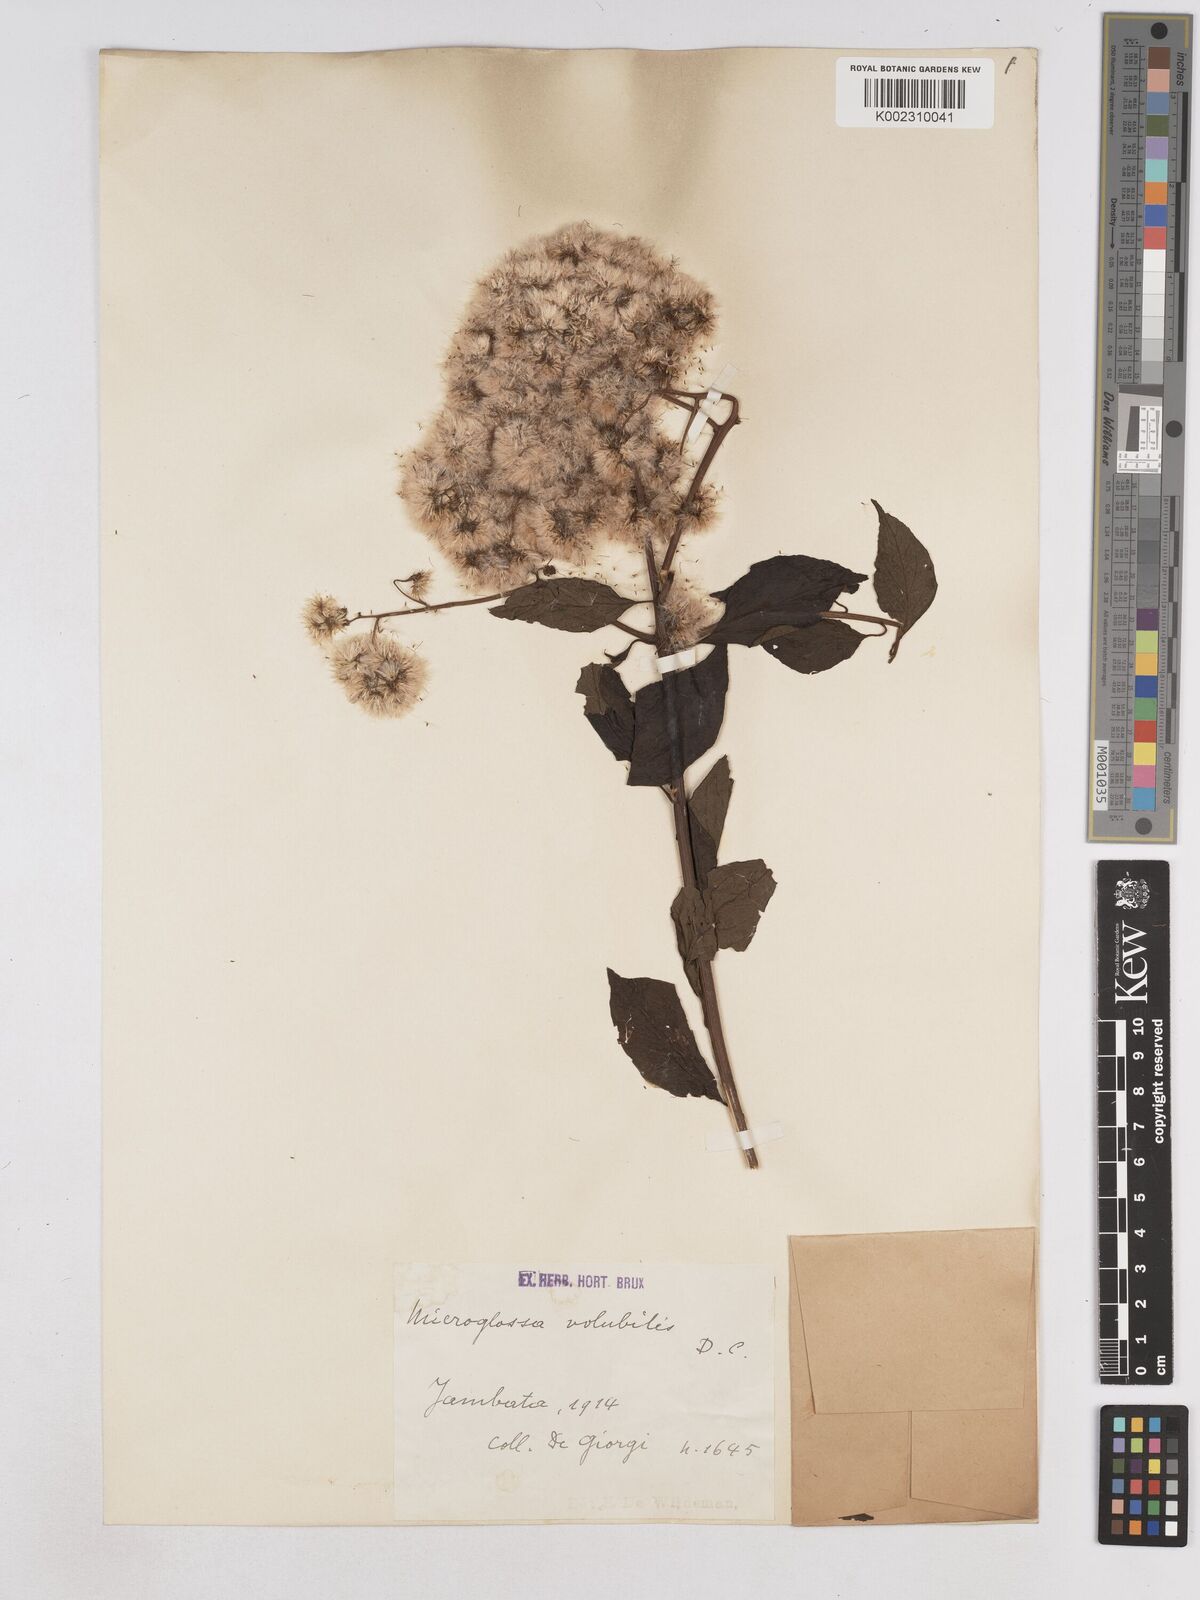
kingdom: Plantae
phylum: Tracheophyta
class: Magnoliopsida
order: Asterales
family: Asteraceae
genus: Microglossa
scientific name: Microglossa pyrifolia
